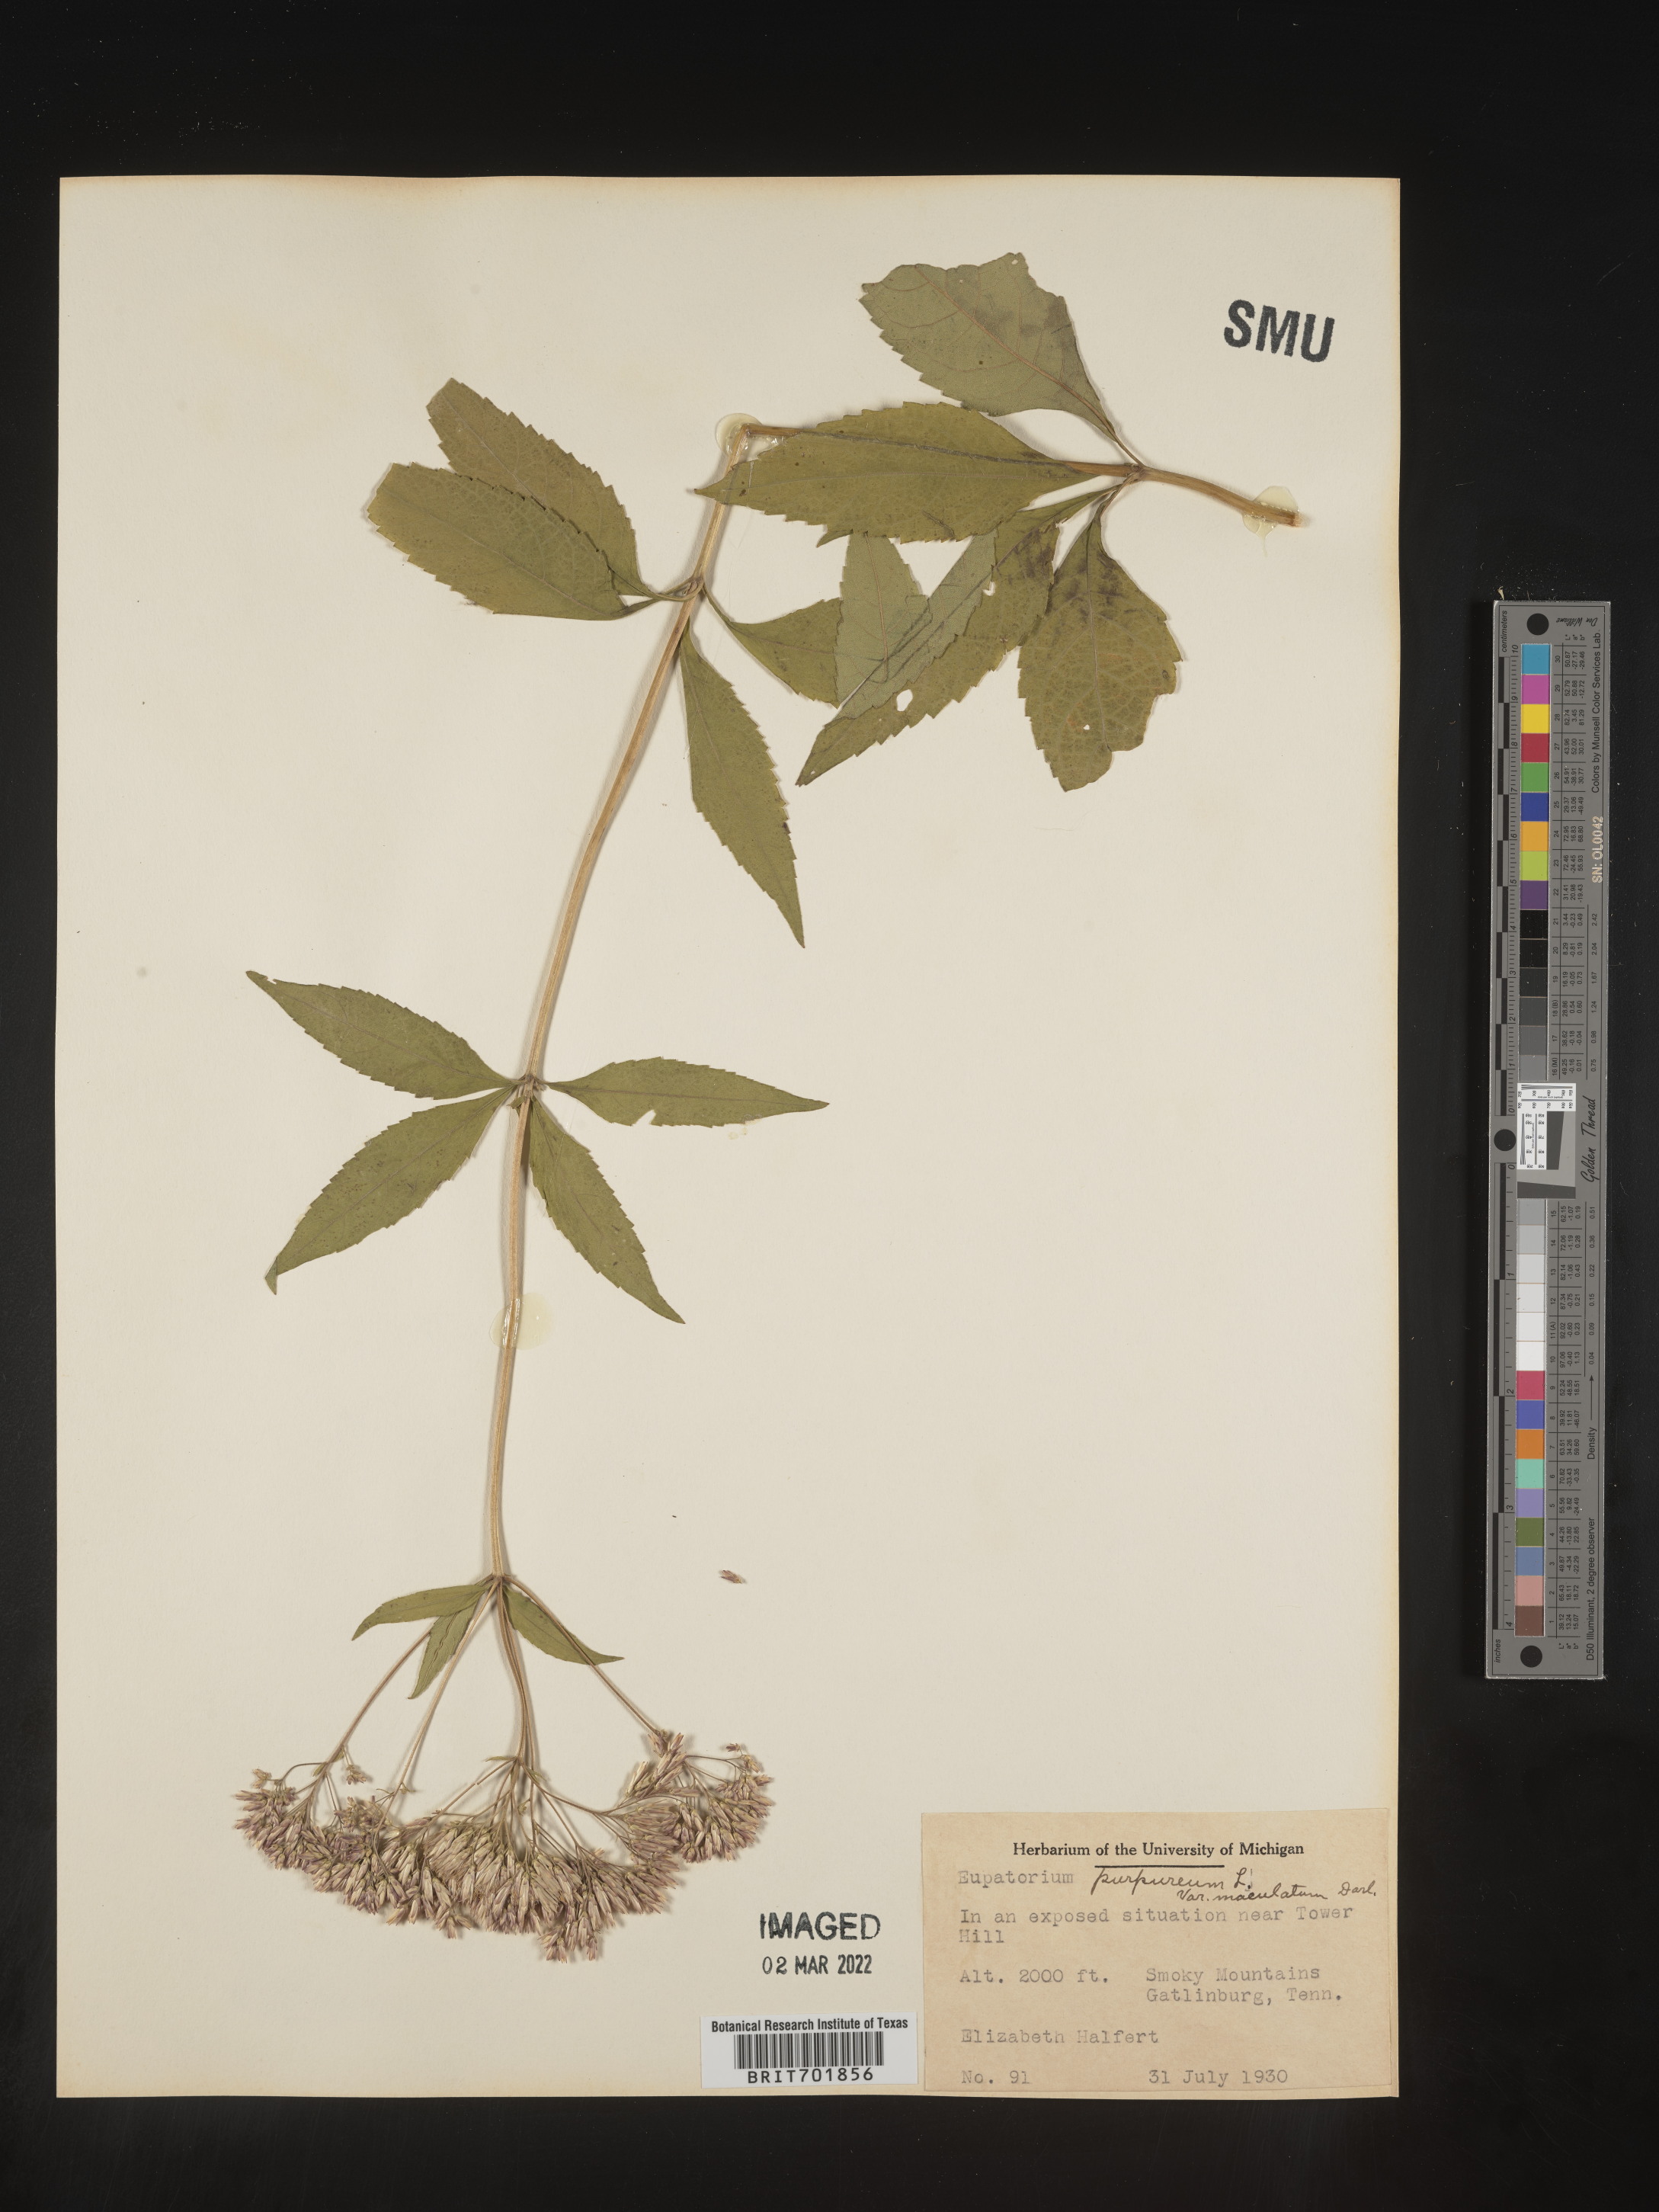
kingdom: Plantae
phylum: Tracheophyta
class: Magnoliopsida
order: Asterales
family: Asteraceae
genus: Eupatorium
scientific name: Eupatorium quaternum
